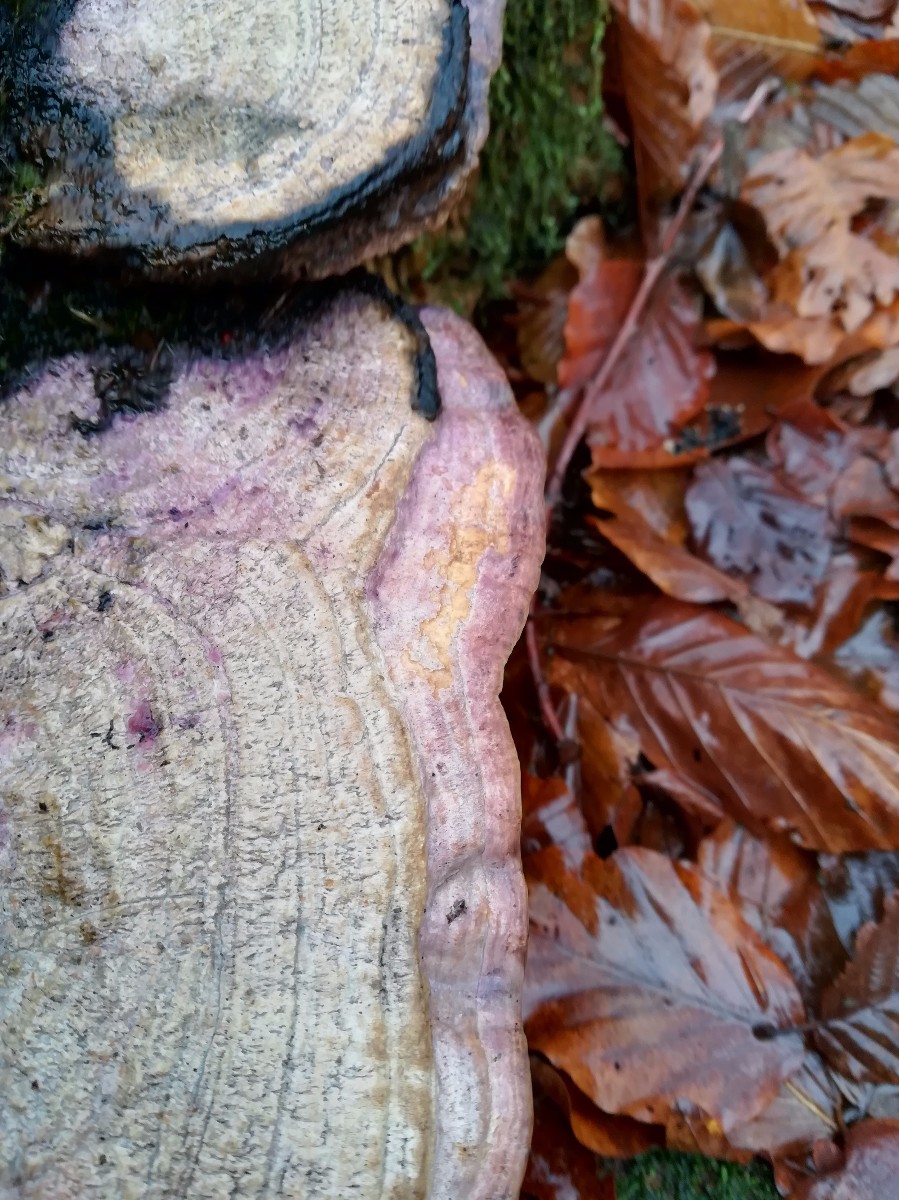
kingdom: Fungi
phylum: Basidiomycota
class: Agaricomycetes
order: Polyporales
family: Fomitopsidaceae
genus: Daedalea
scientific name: Daedalea quercina
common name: ege-labyrintsvamp
